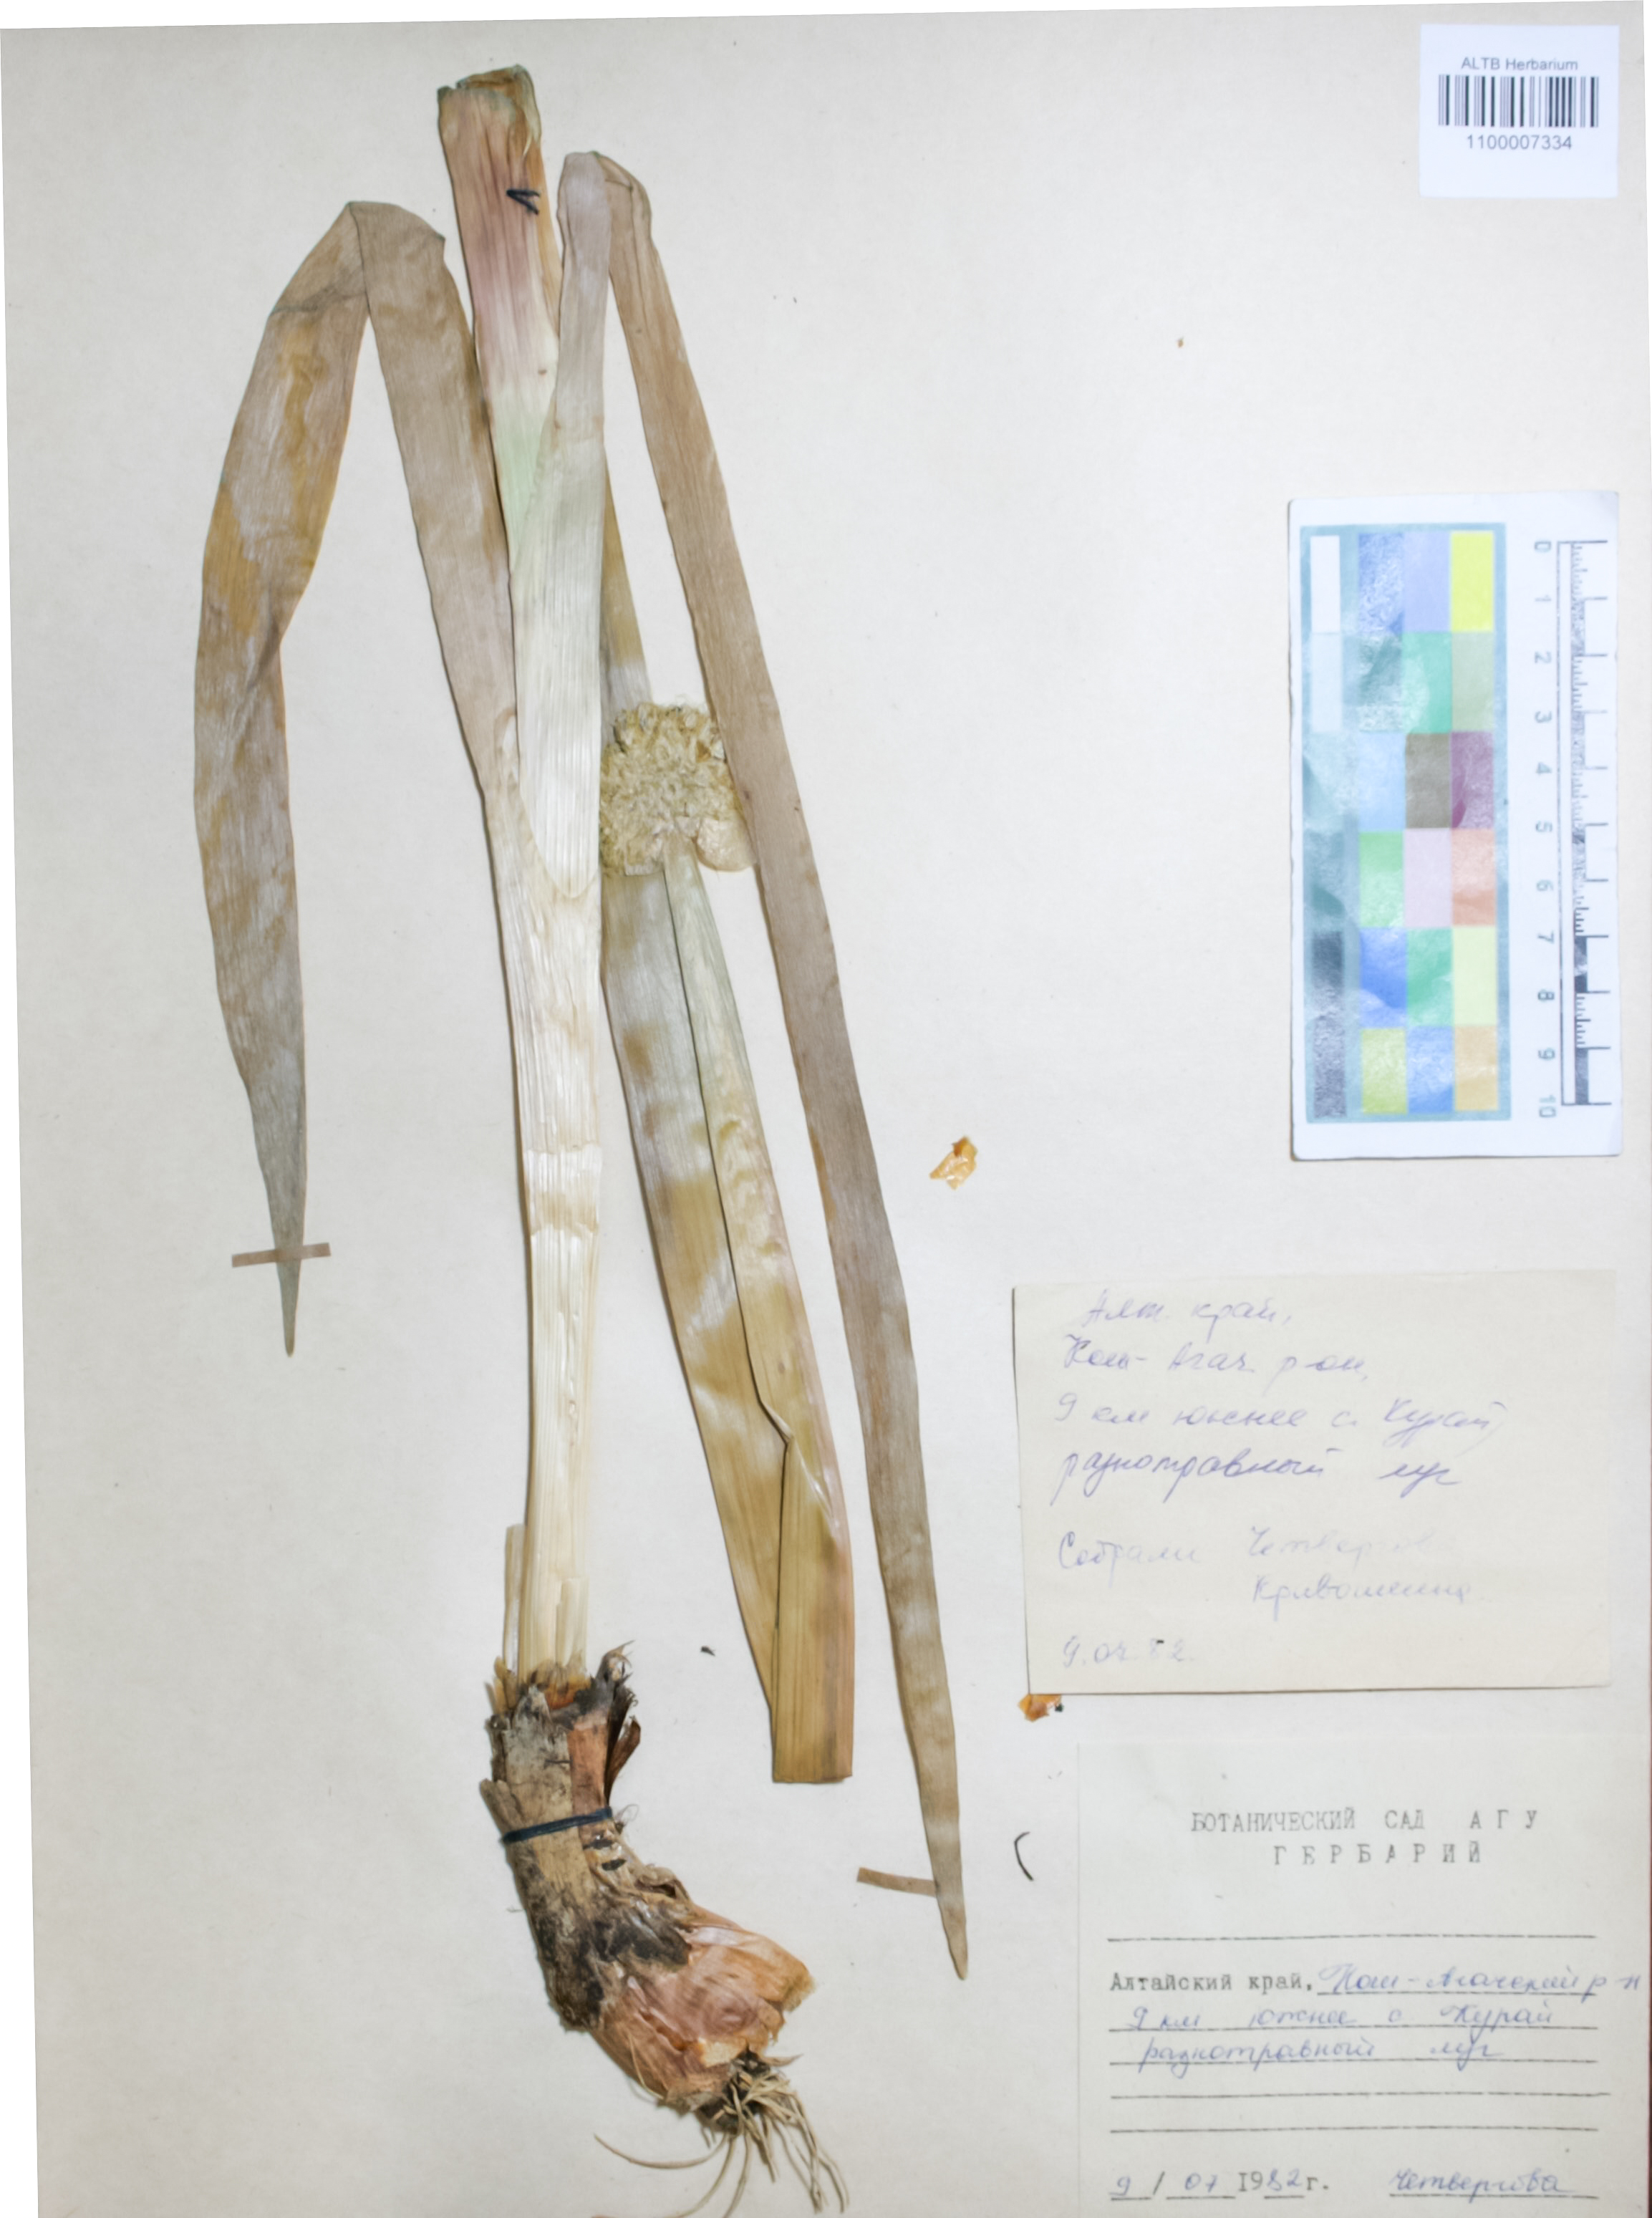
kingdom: Plantae
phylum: Tracheophyta
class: Liliopsida
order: Asparagales
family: Amaryllidaceae
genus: Allium
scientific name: Allium altaicum
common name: Altai onion
